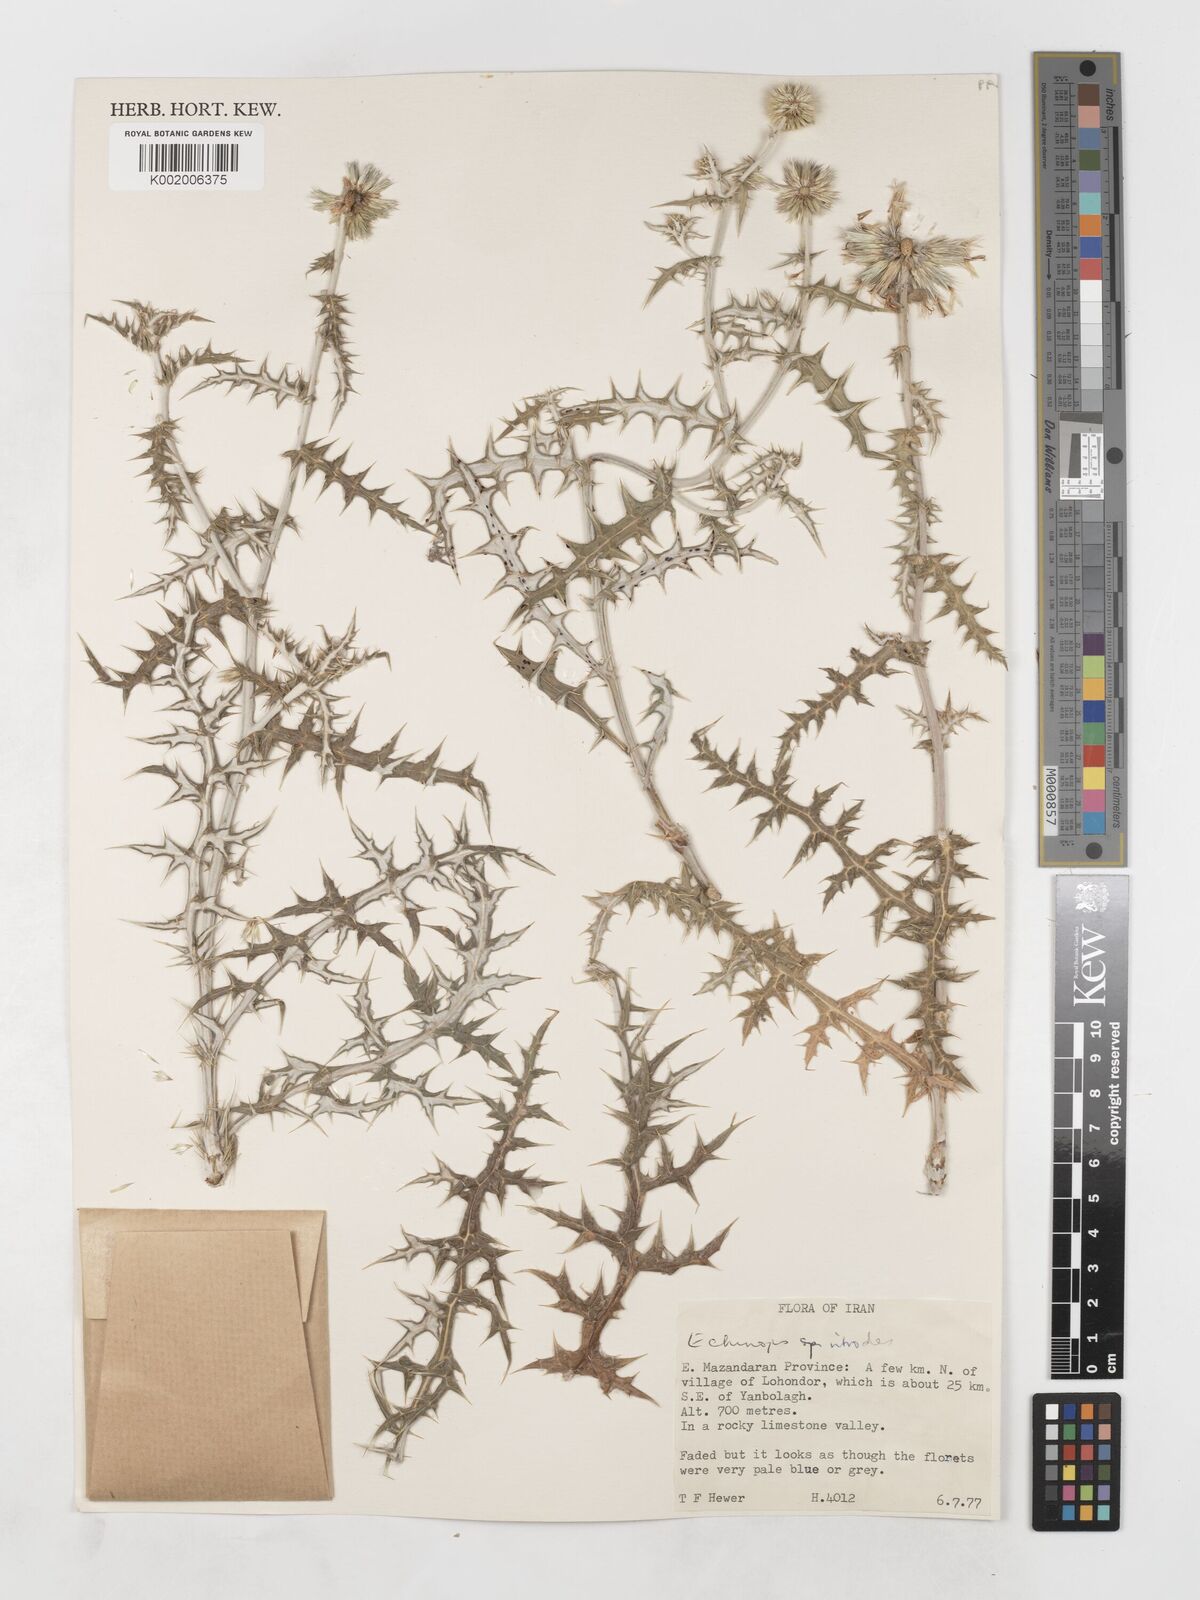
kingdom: Plantae
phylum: Tracheophyta
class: Magnoliopsida
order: Asterales
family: Asteraceae
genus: Echinops
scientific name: Echinops ritrodes
